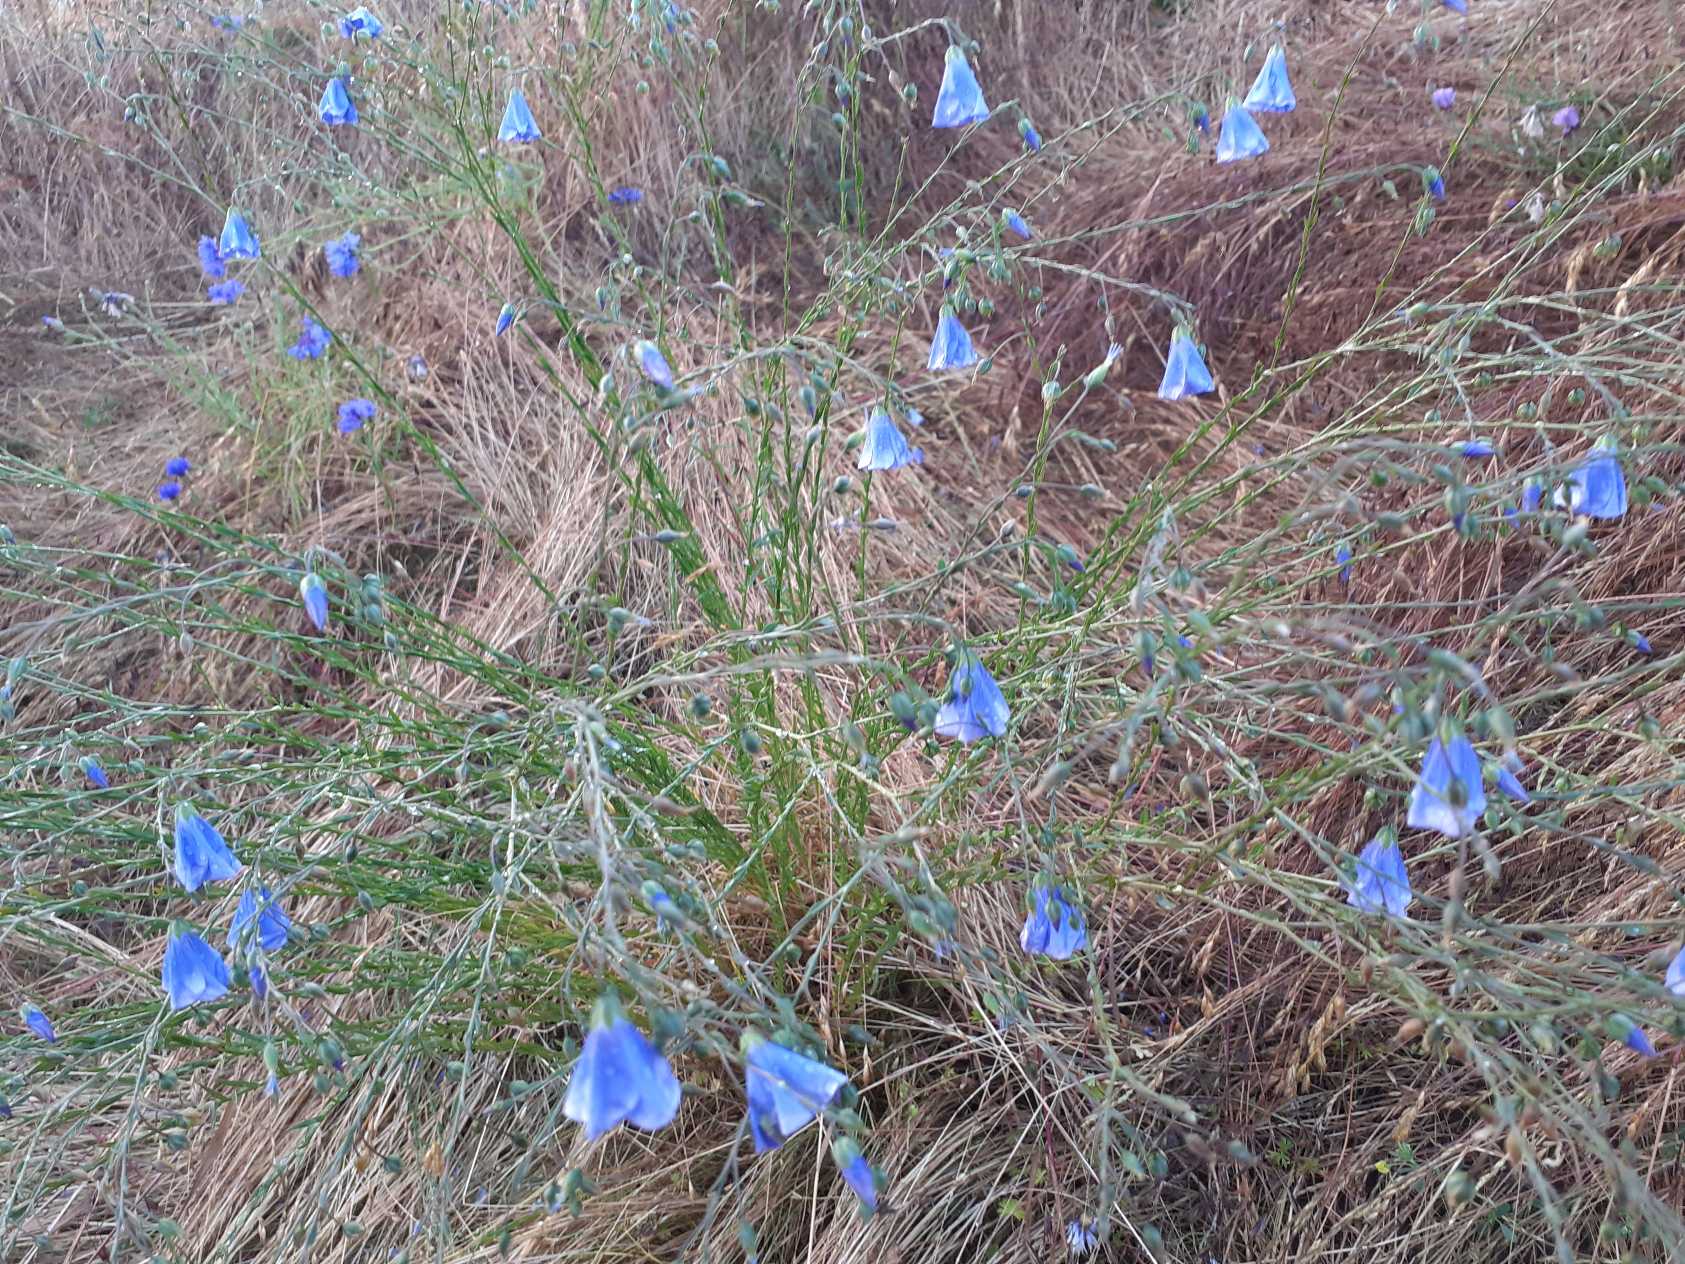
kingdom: Plantae
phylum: Tracheophyta
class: Magnoliopsida
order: Malpighiales
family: Linaceae
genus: Linum
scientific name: Linum austriacum
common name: Østrigsk hør
